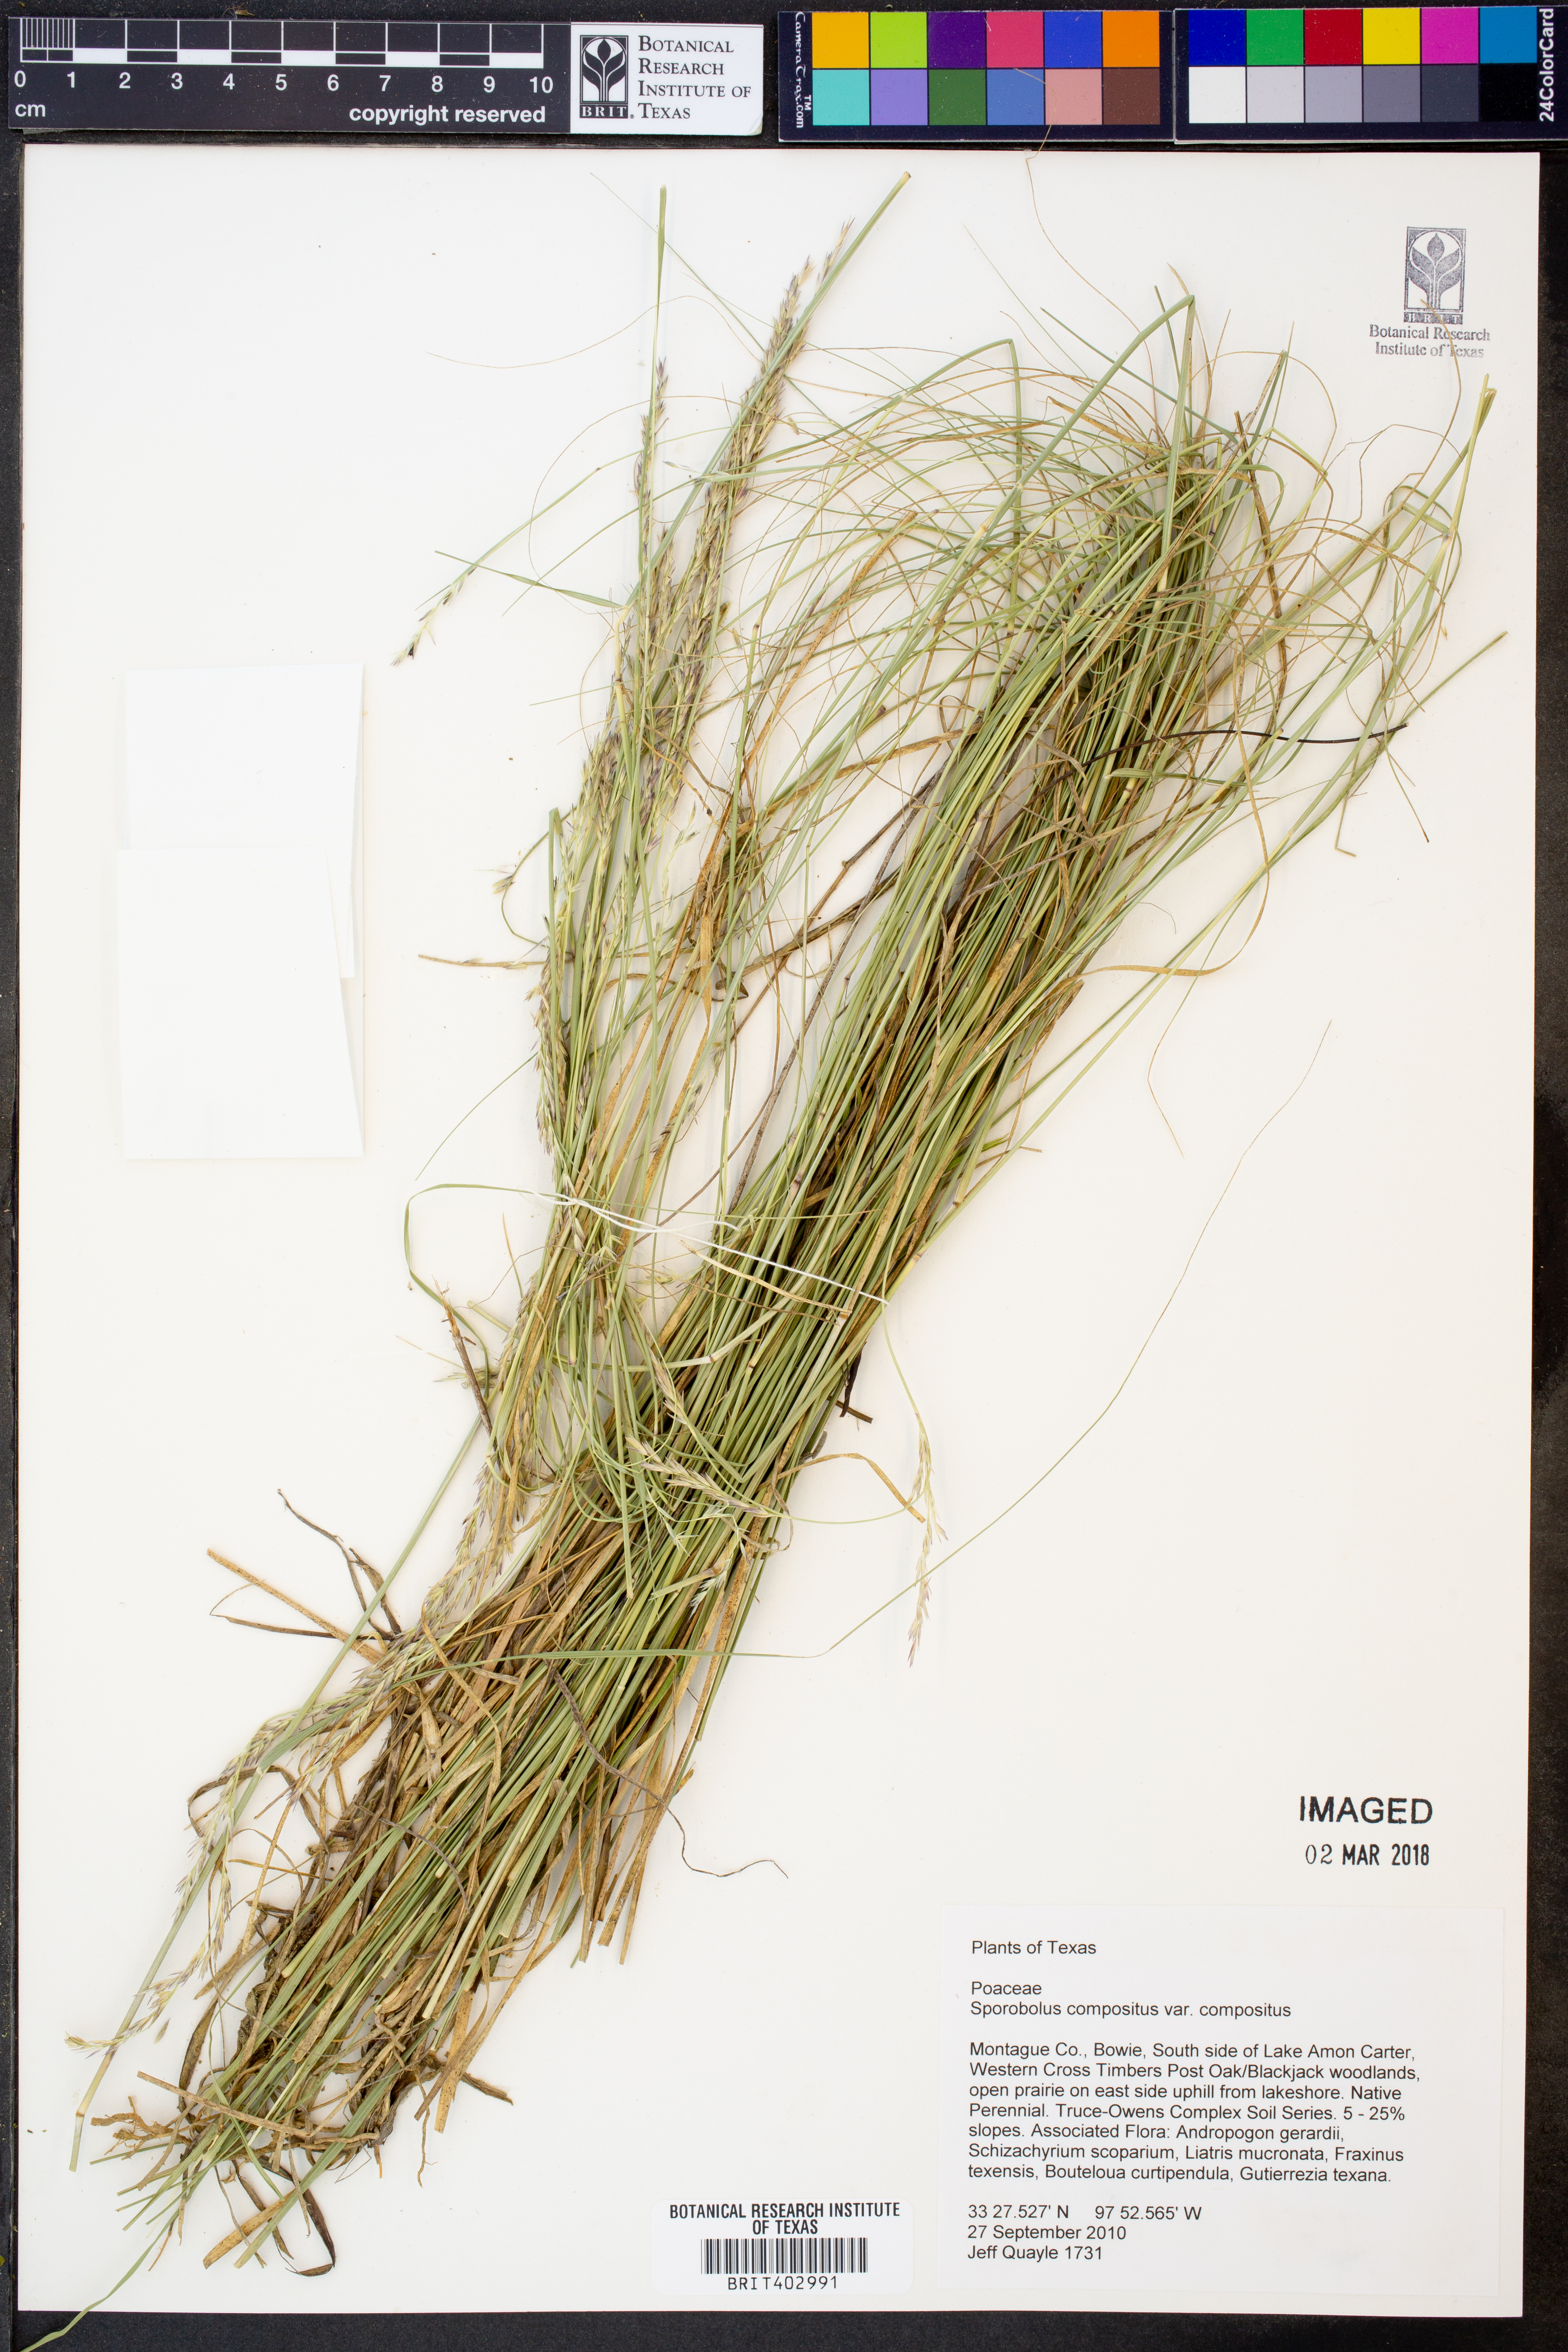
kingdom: Plantae
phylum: Tracheophyta
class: Liliopsida
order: Poales
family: Poaceae
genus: Sporobolus
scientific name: Sporobolus compositus
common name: Rough dropseed
